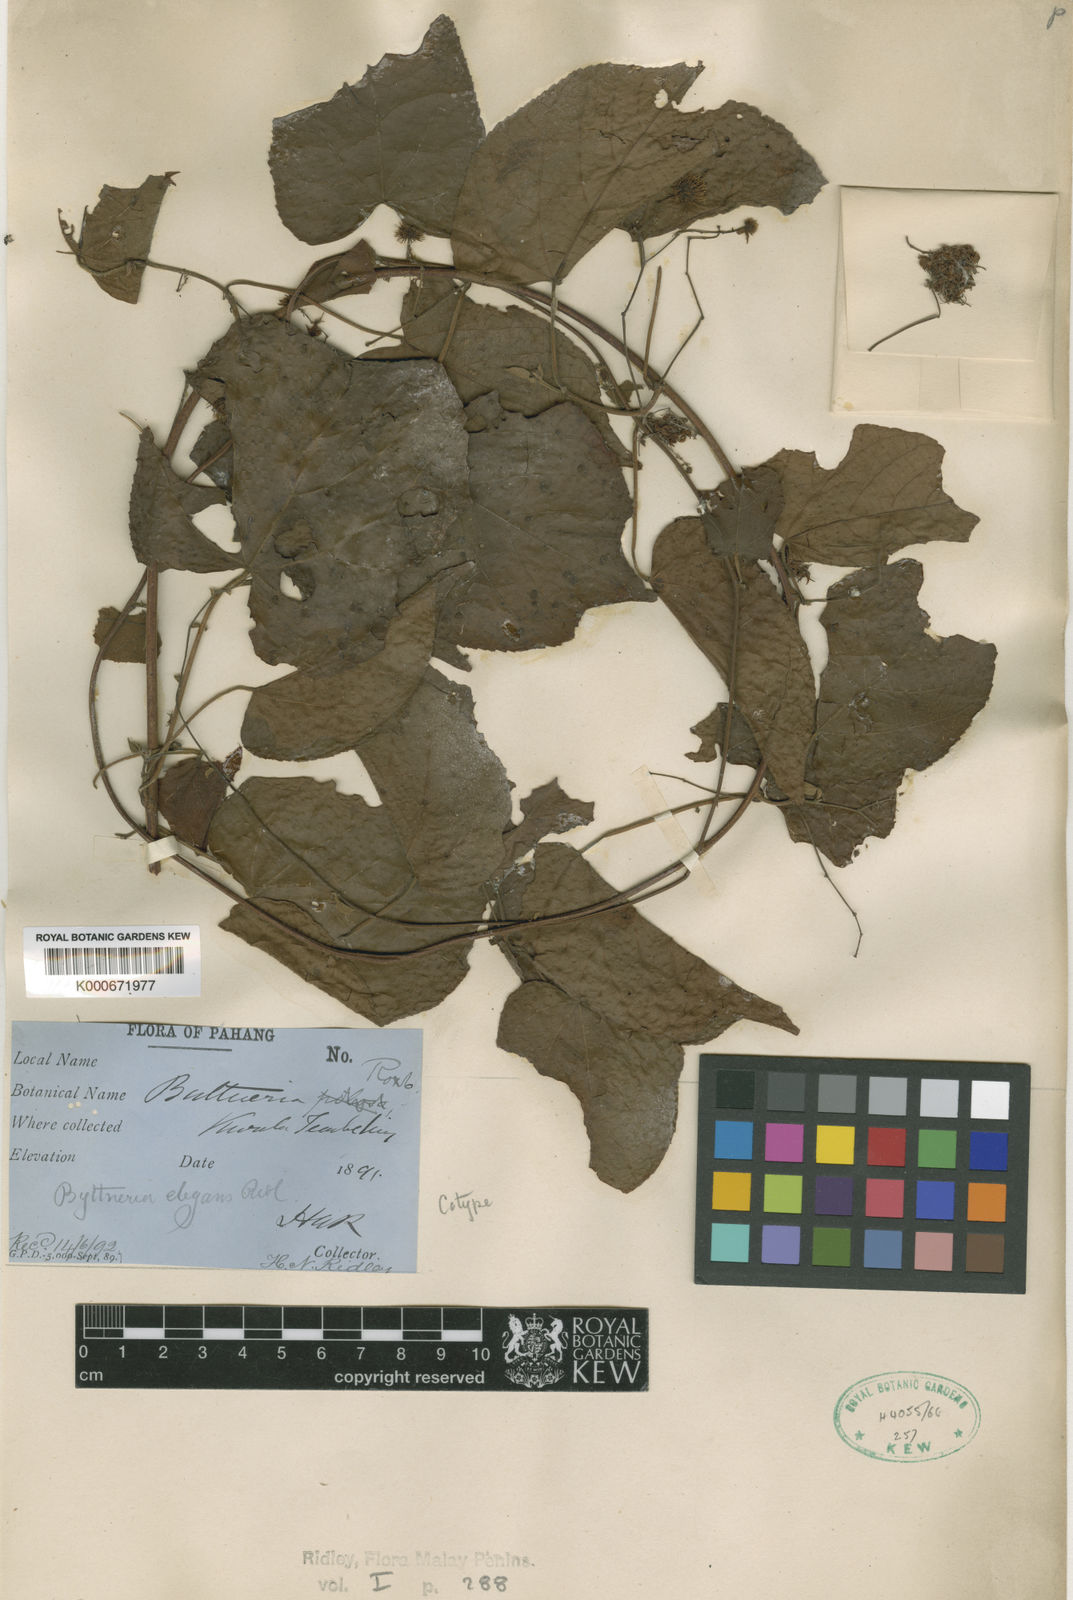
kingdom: Plantae
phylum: Tracheophyta
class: Magnoliopsida
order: Malvales
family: Malvaceae
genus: Byttneria
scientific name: Byttneria pilosa
